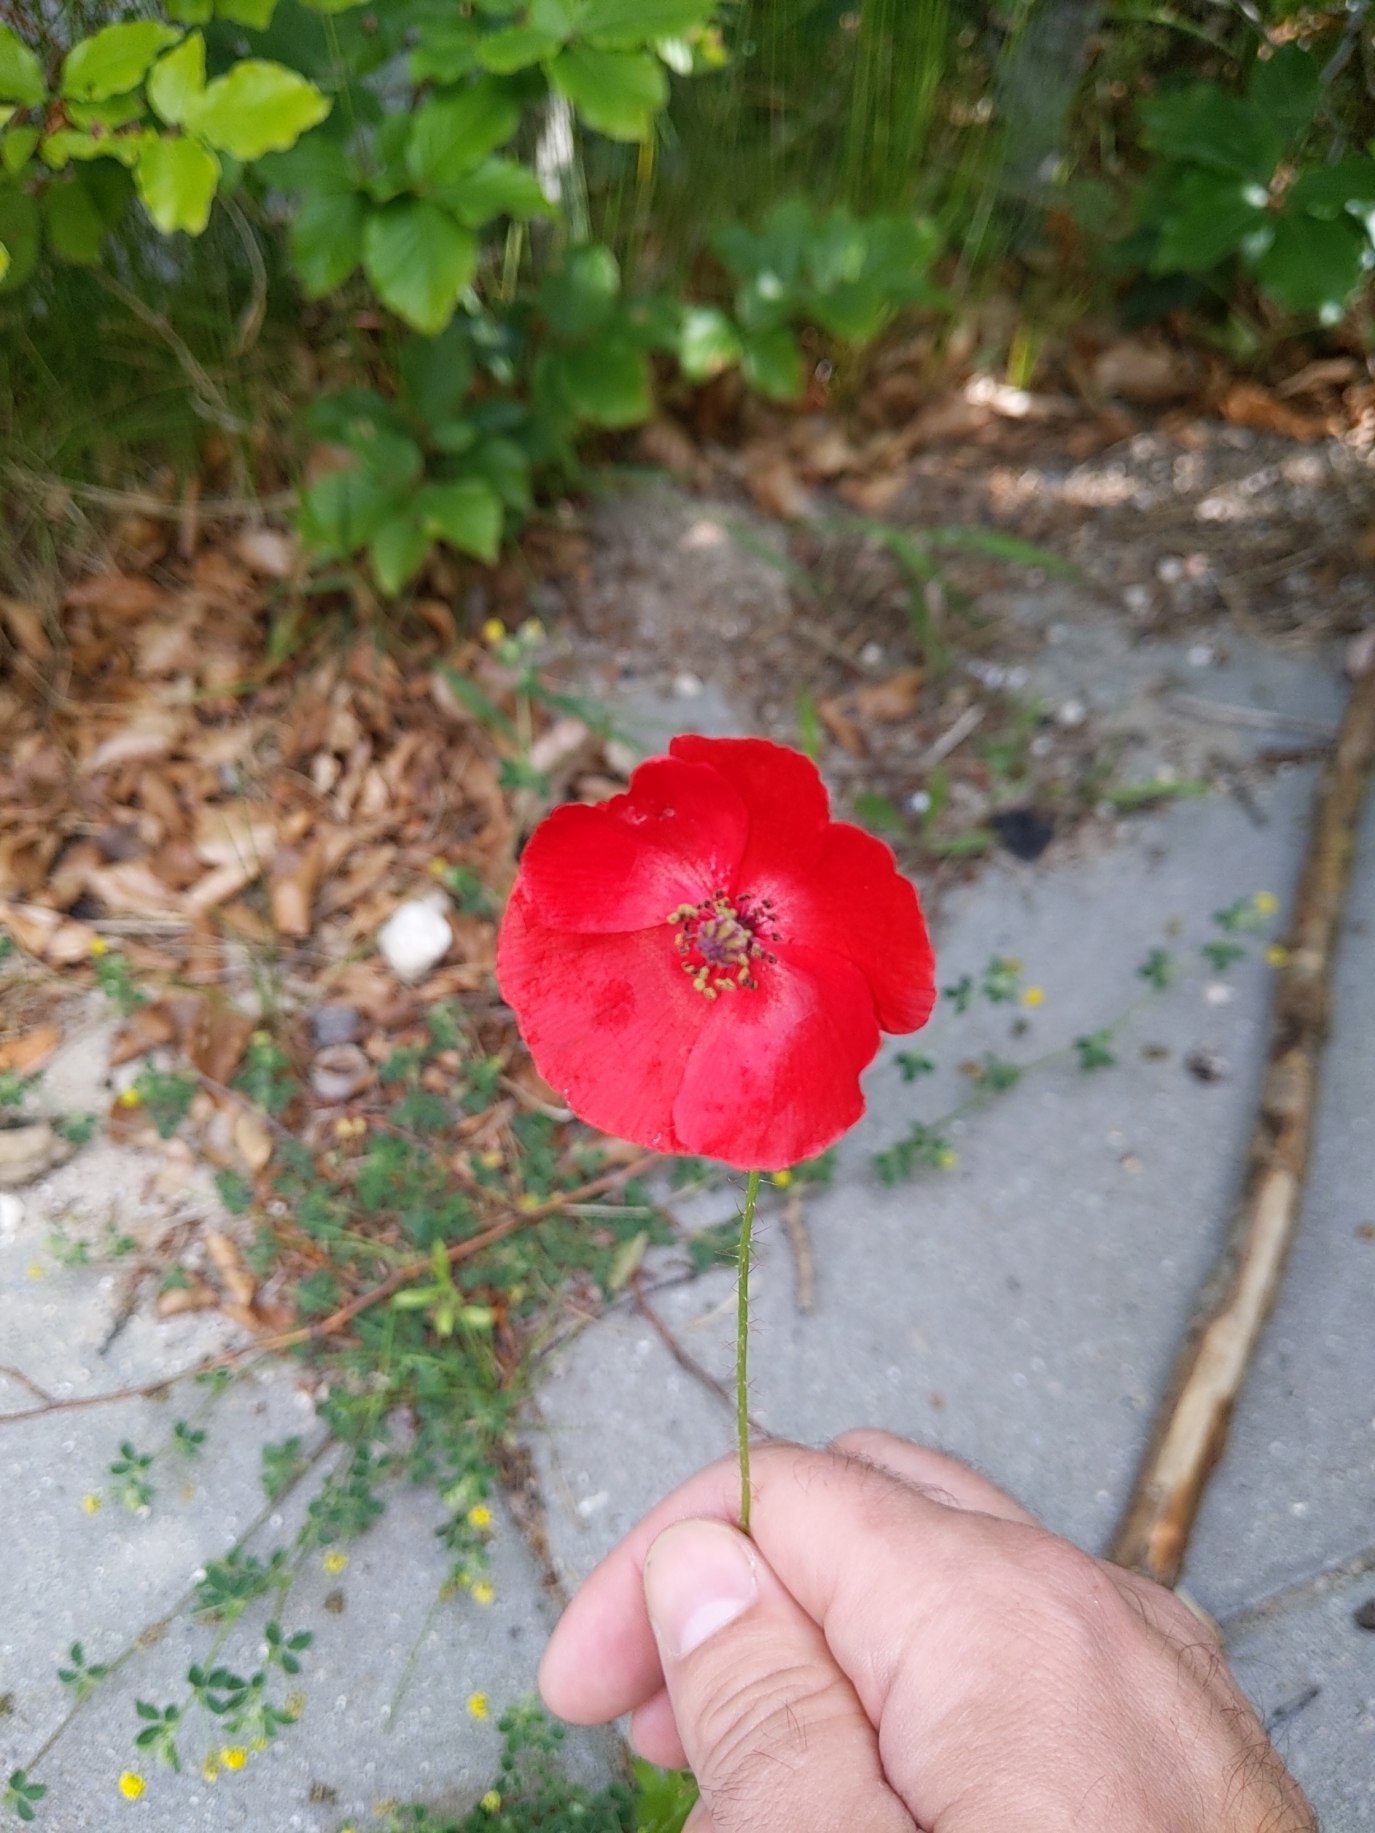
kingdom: Plantae
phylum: Tracheophyta
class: Magnoliopsida
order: Ranunculales
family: Papaveraceae
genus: Papaver
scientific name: Papaver rhoeas
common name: Korn-valmue
